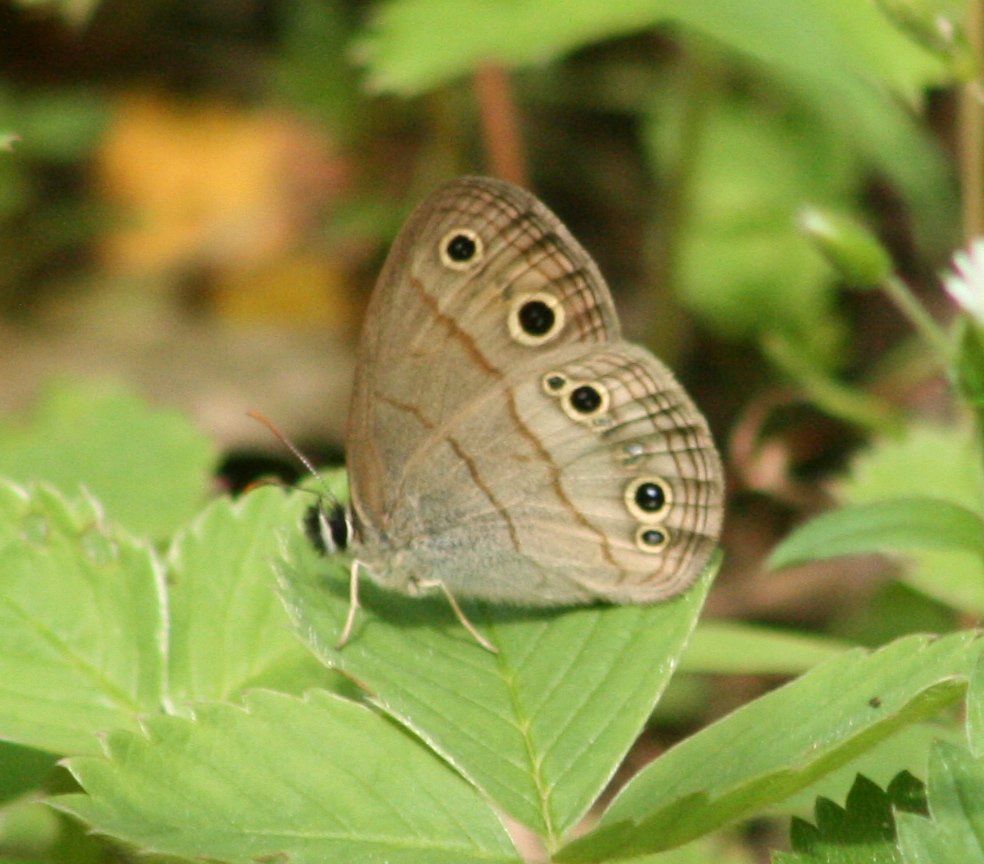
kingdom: Animalia
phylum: Arthropoda
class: Insecta
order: Lepidoptera
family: Nymphalidae
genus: Euptychia
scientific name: Euptychia cymela
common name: Little Wood Satyr
